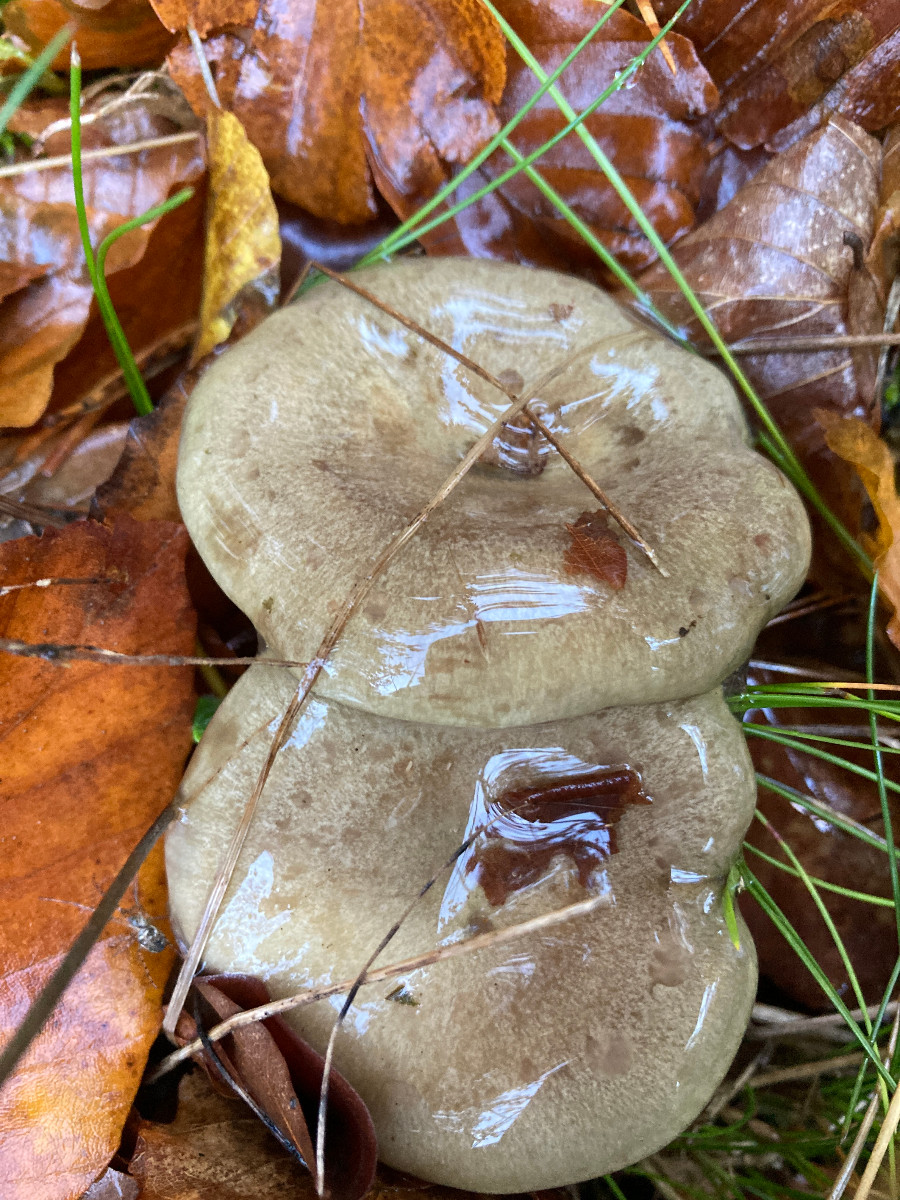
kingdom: Fungi
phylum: Basidiomycota
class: Agaricomycetes
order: Russulales
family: Russulaceae
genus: Lactarius
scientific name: Lactarius blennius
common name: dråbeplettet mælkehat
